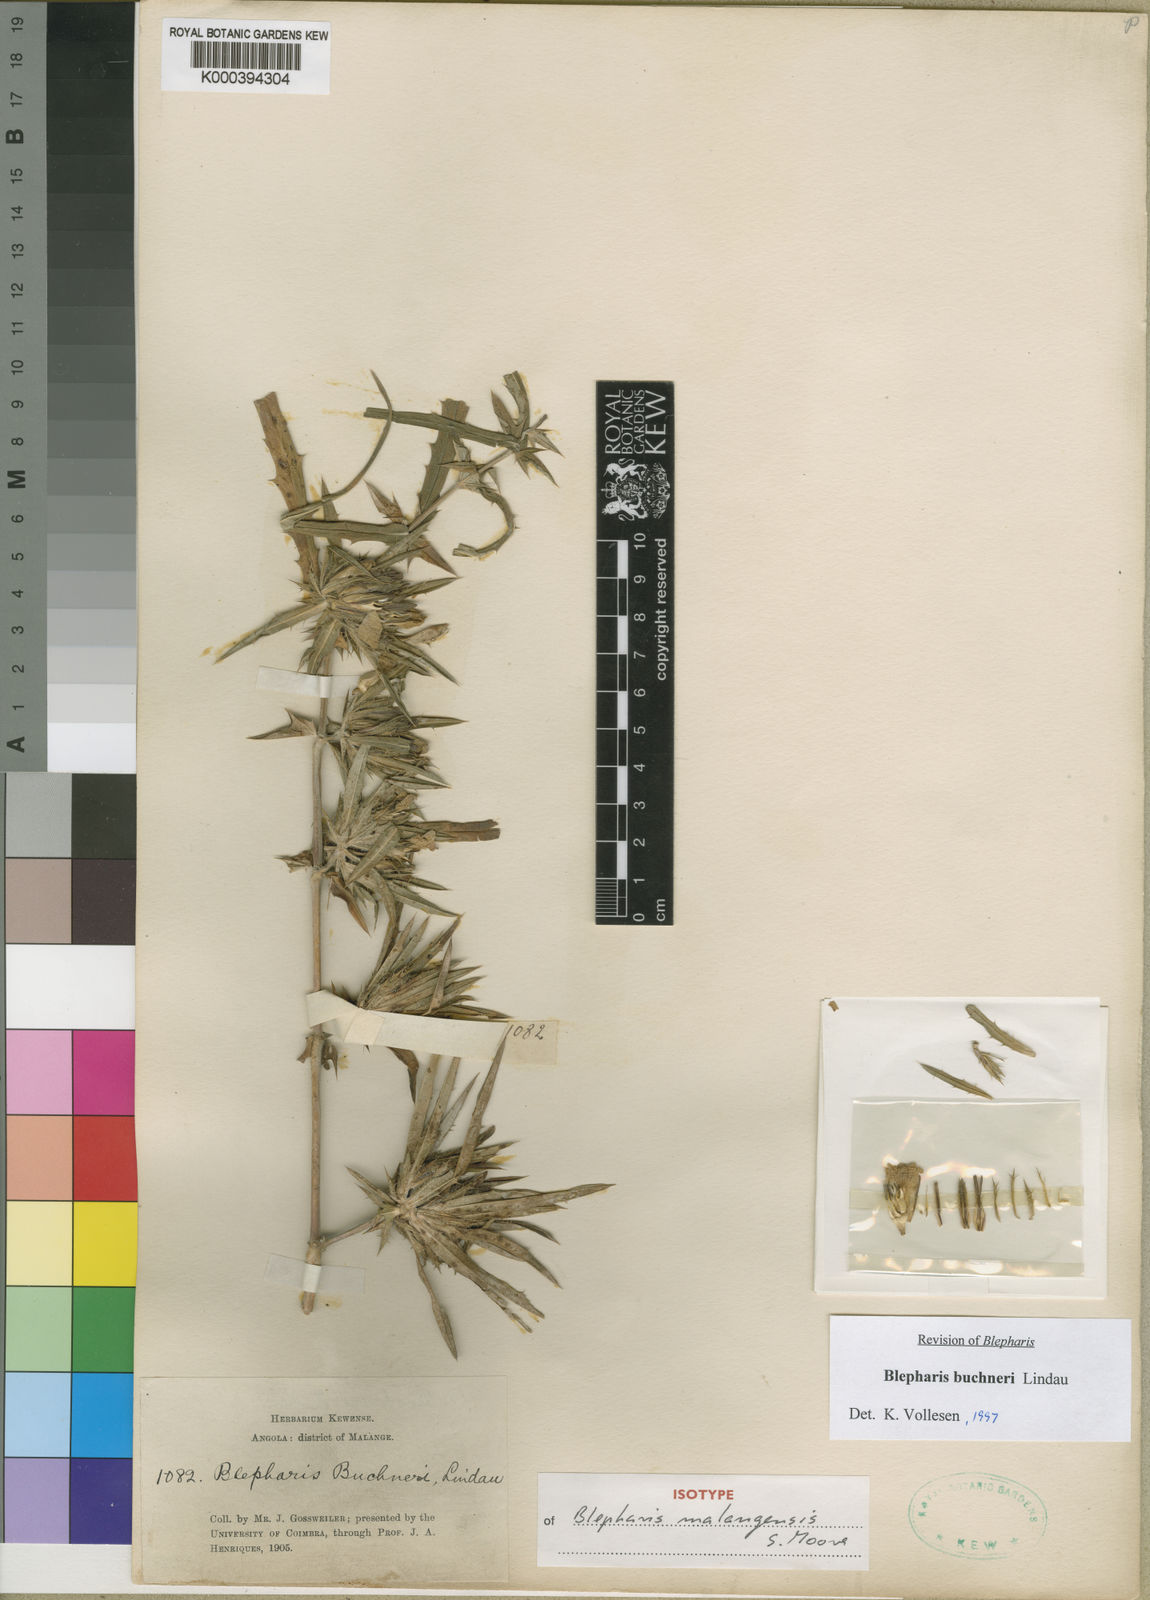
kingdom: Plantae
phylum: Tracheophyta
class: Magnoliopsida
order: Lamiales
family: Acanthaceae
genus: Blepharis
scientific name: Blepharis buchneri
